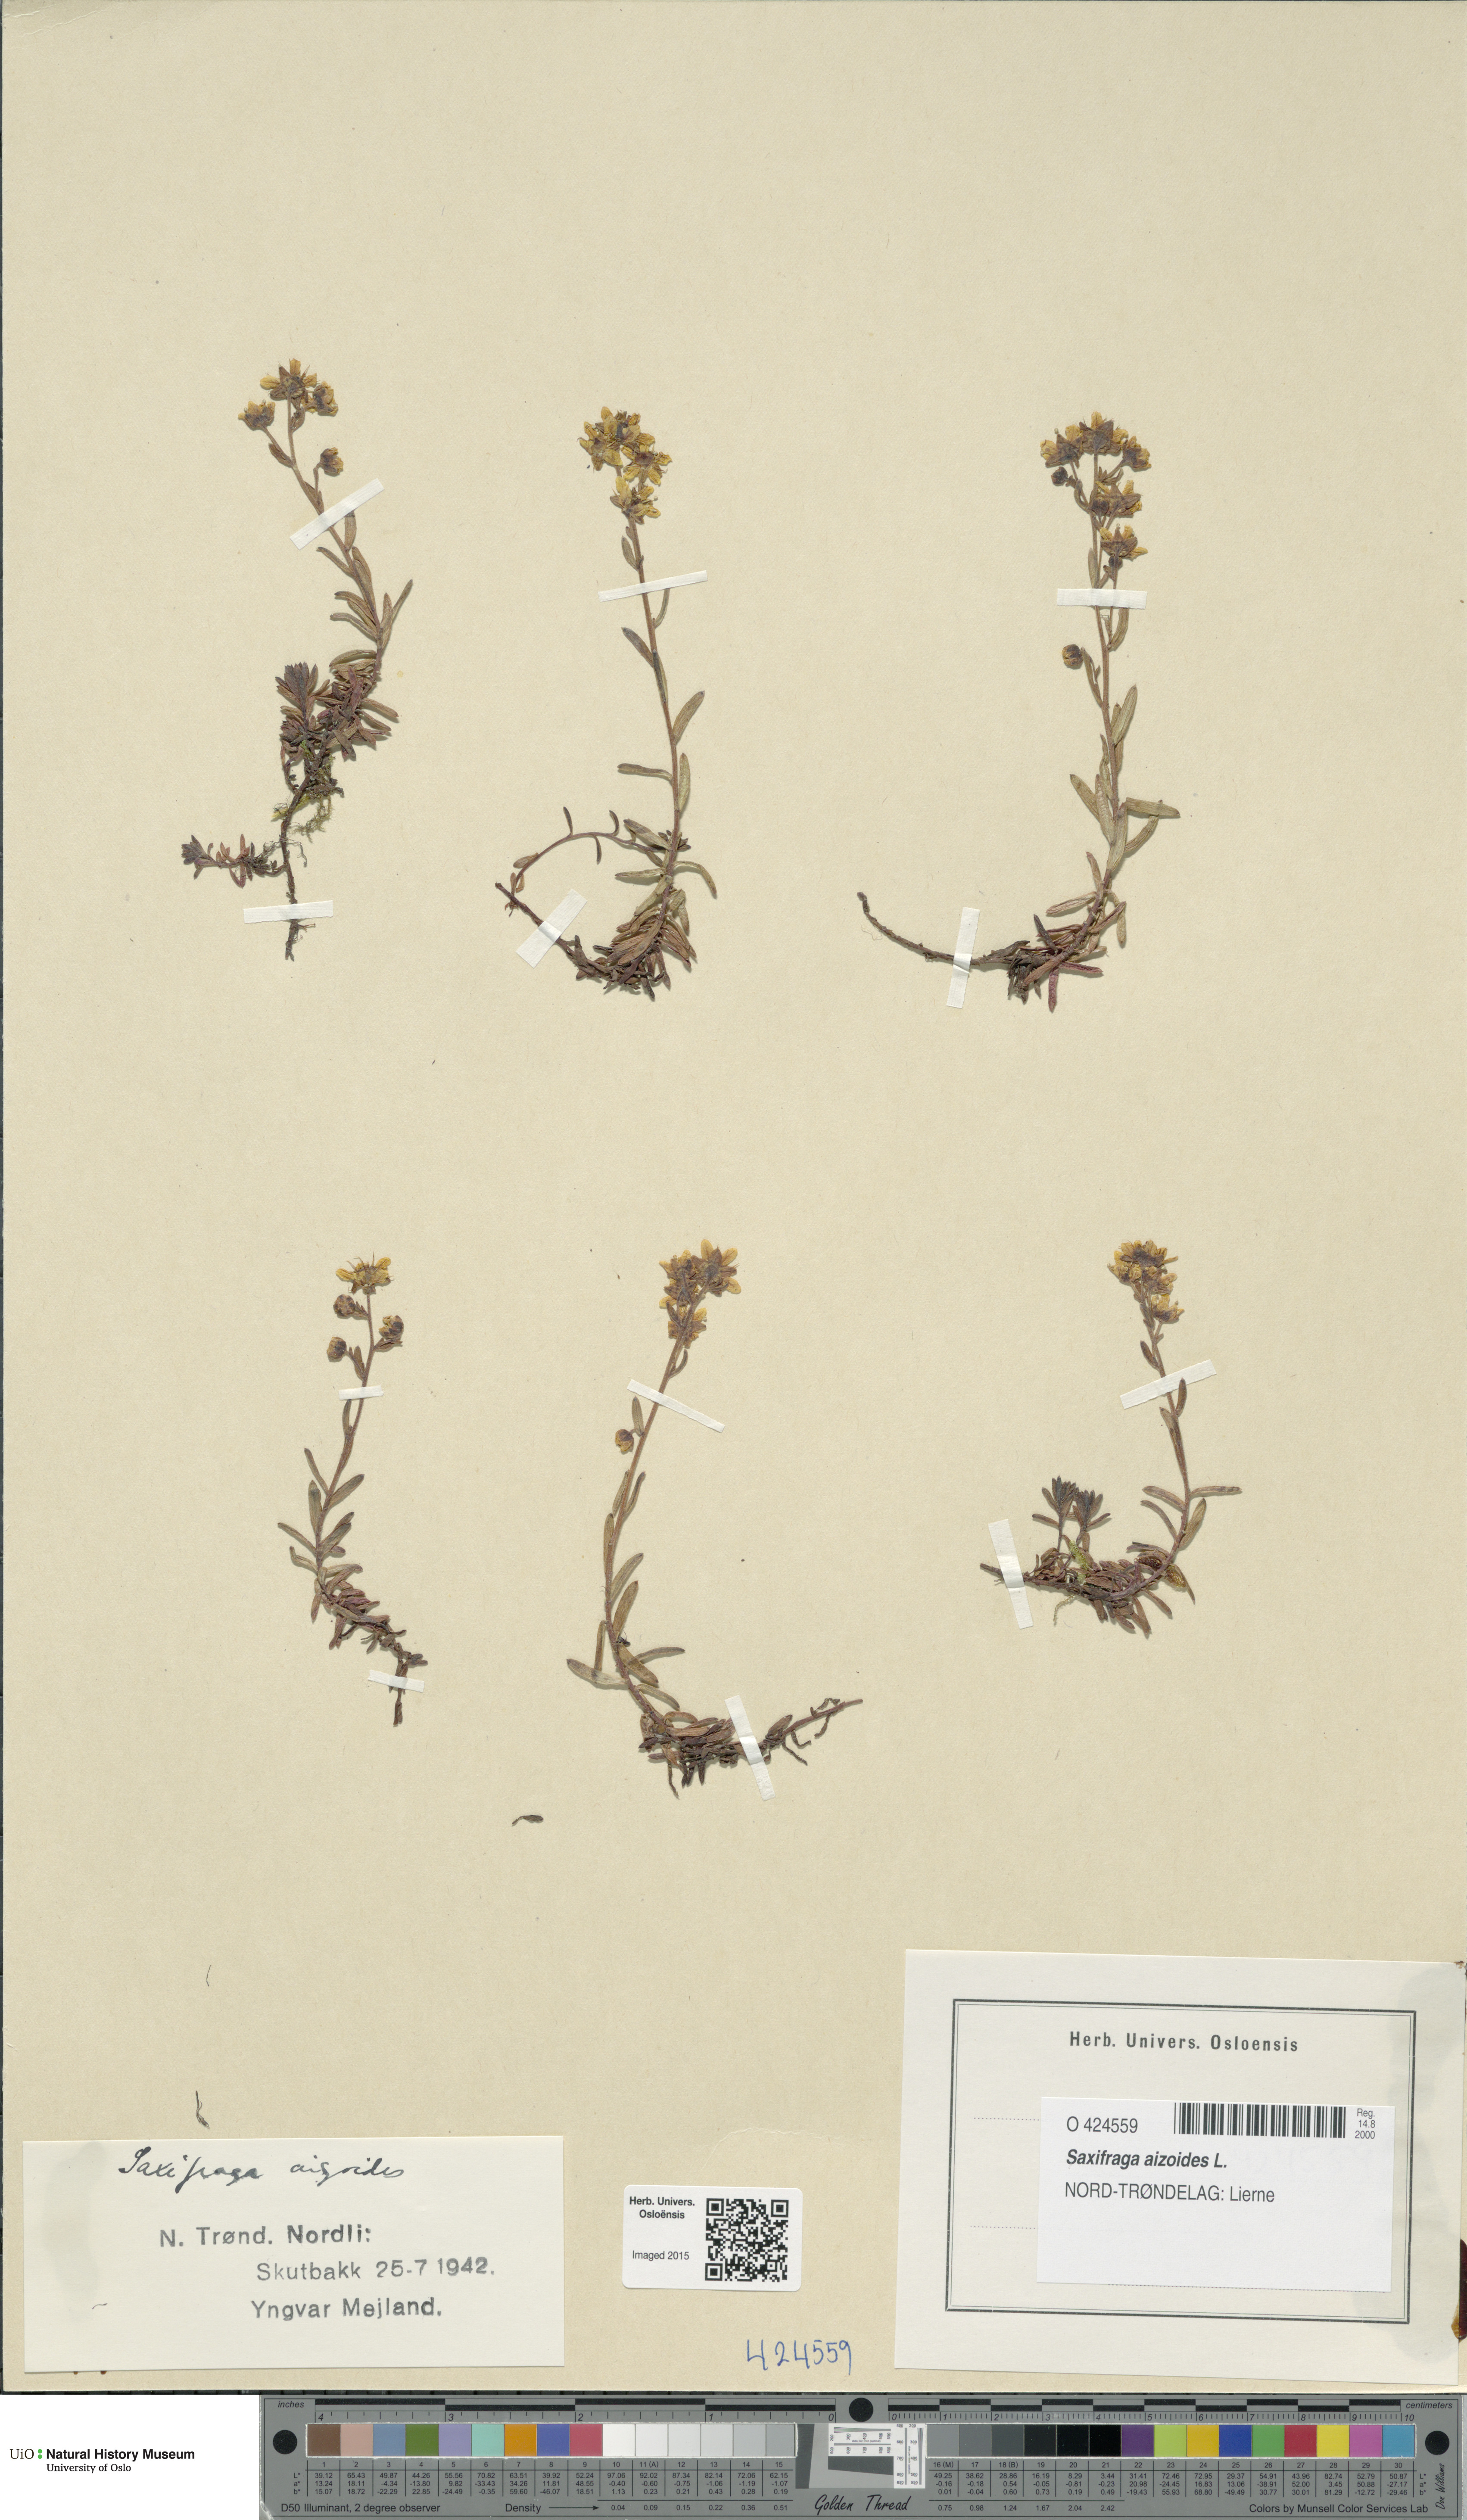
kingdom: Plantae
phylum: Tracheophyta
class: Magnoliopsida
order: Saxifragales
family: Saxifragaceae
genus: Saxifraga
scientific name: Saxifraga aizoides
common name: Yellow mountain saxifrage
